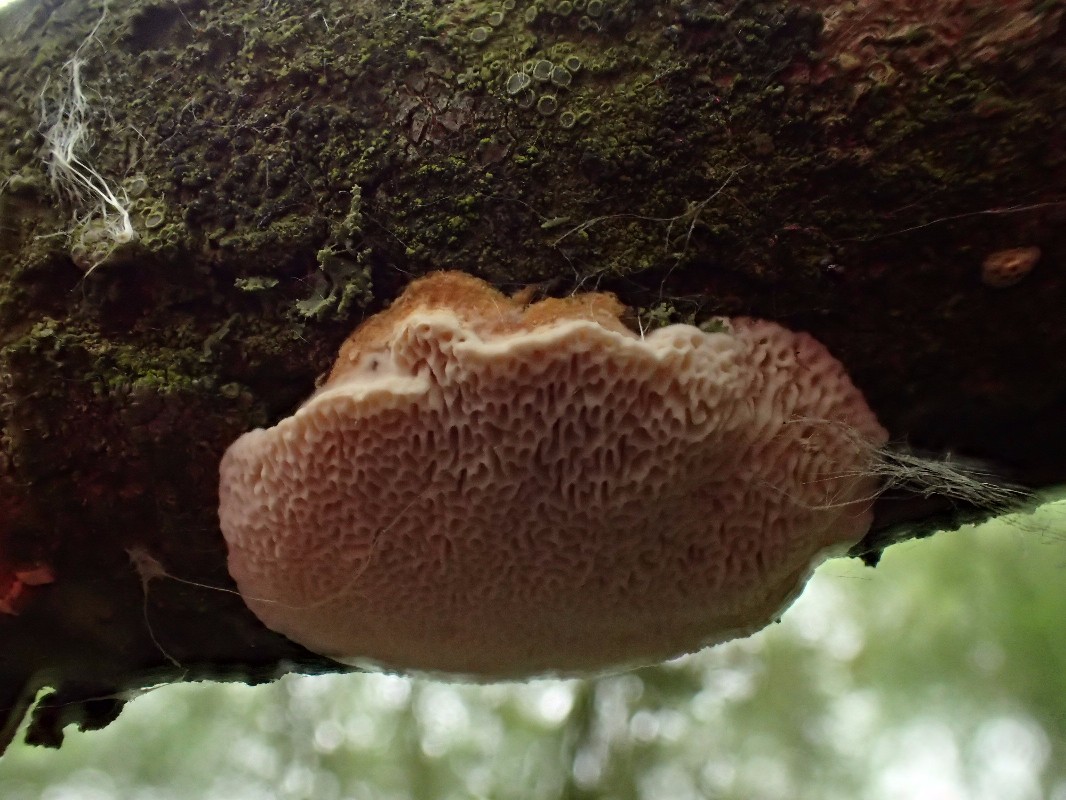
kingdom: Fungi
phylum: Basidiomycota
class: Agaricomycetes
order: Polyporales
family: Polyporaceae
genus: Daedaleopsis
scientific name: Daedaleopsis confragosa
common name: rødmende læderporesvamp
